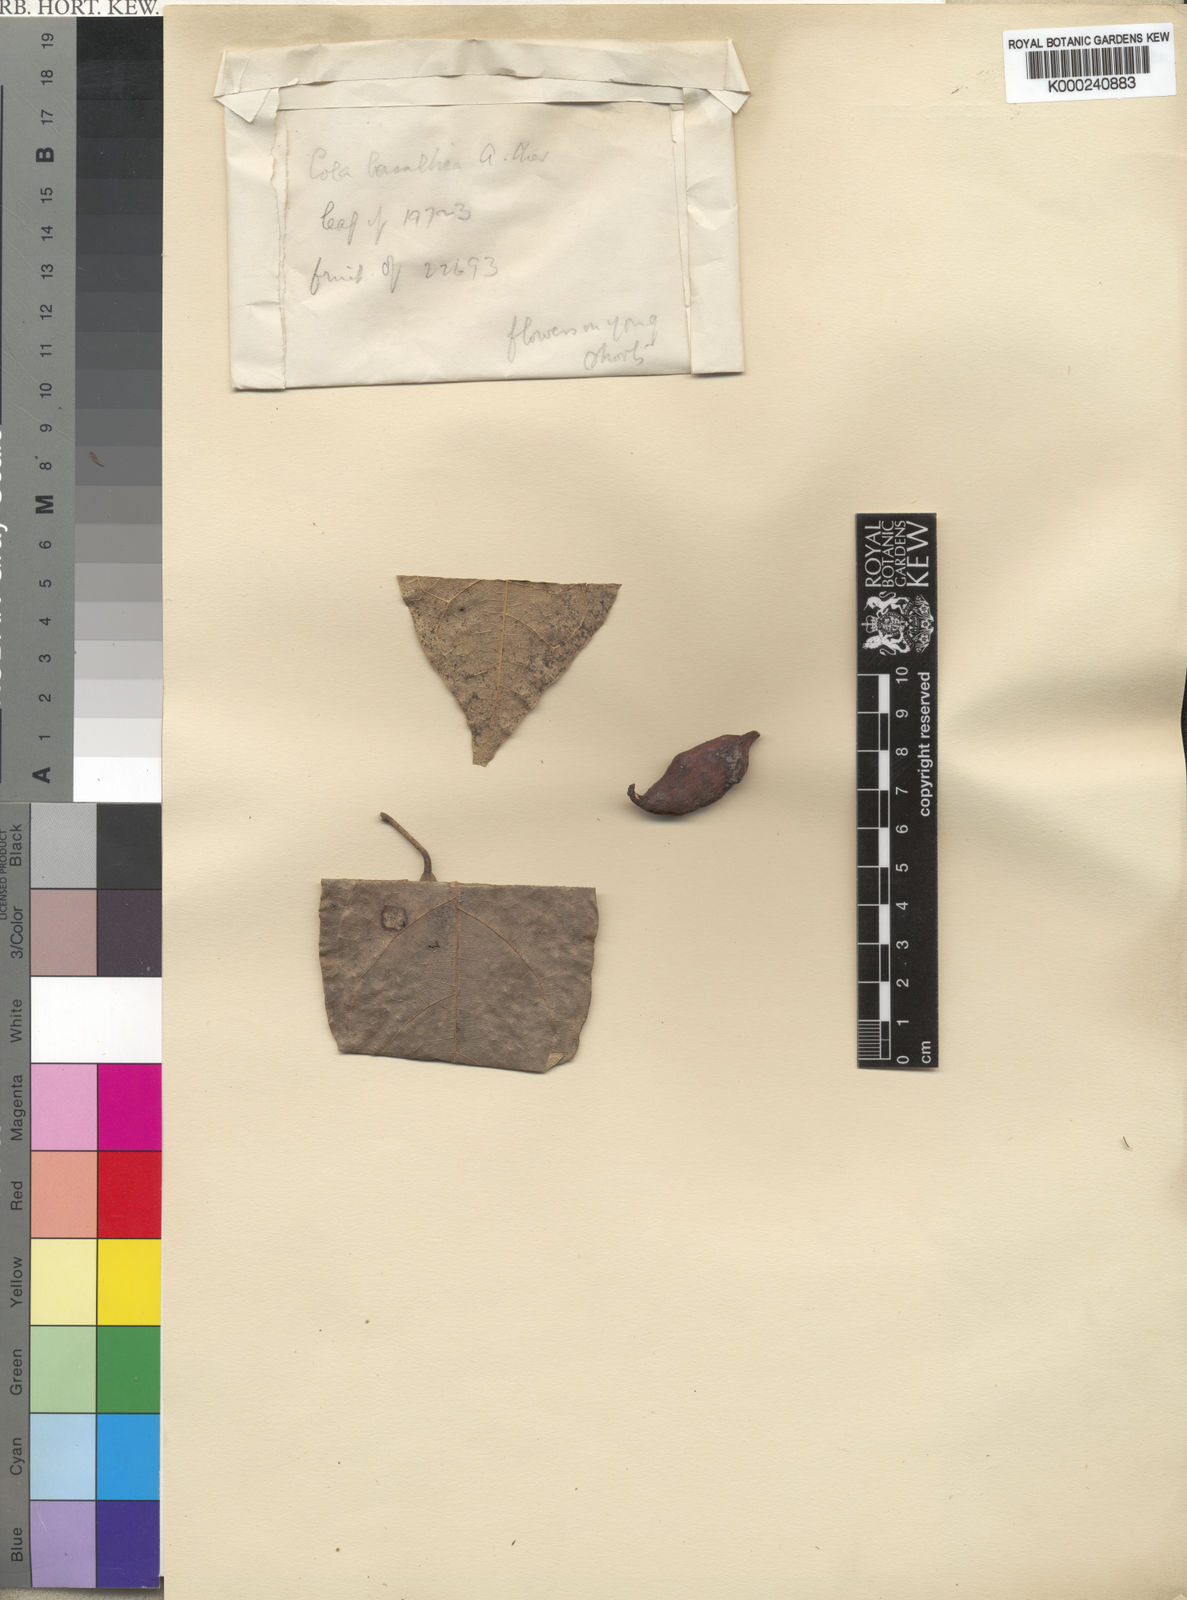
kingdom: Plantae
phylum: Tracheophyta
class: Magnoliopsida
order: Malvales
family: Malvaceae
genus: Cola
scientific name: Cola reticulata
